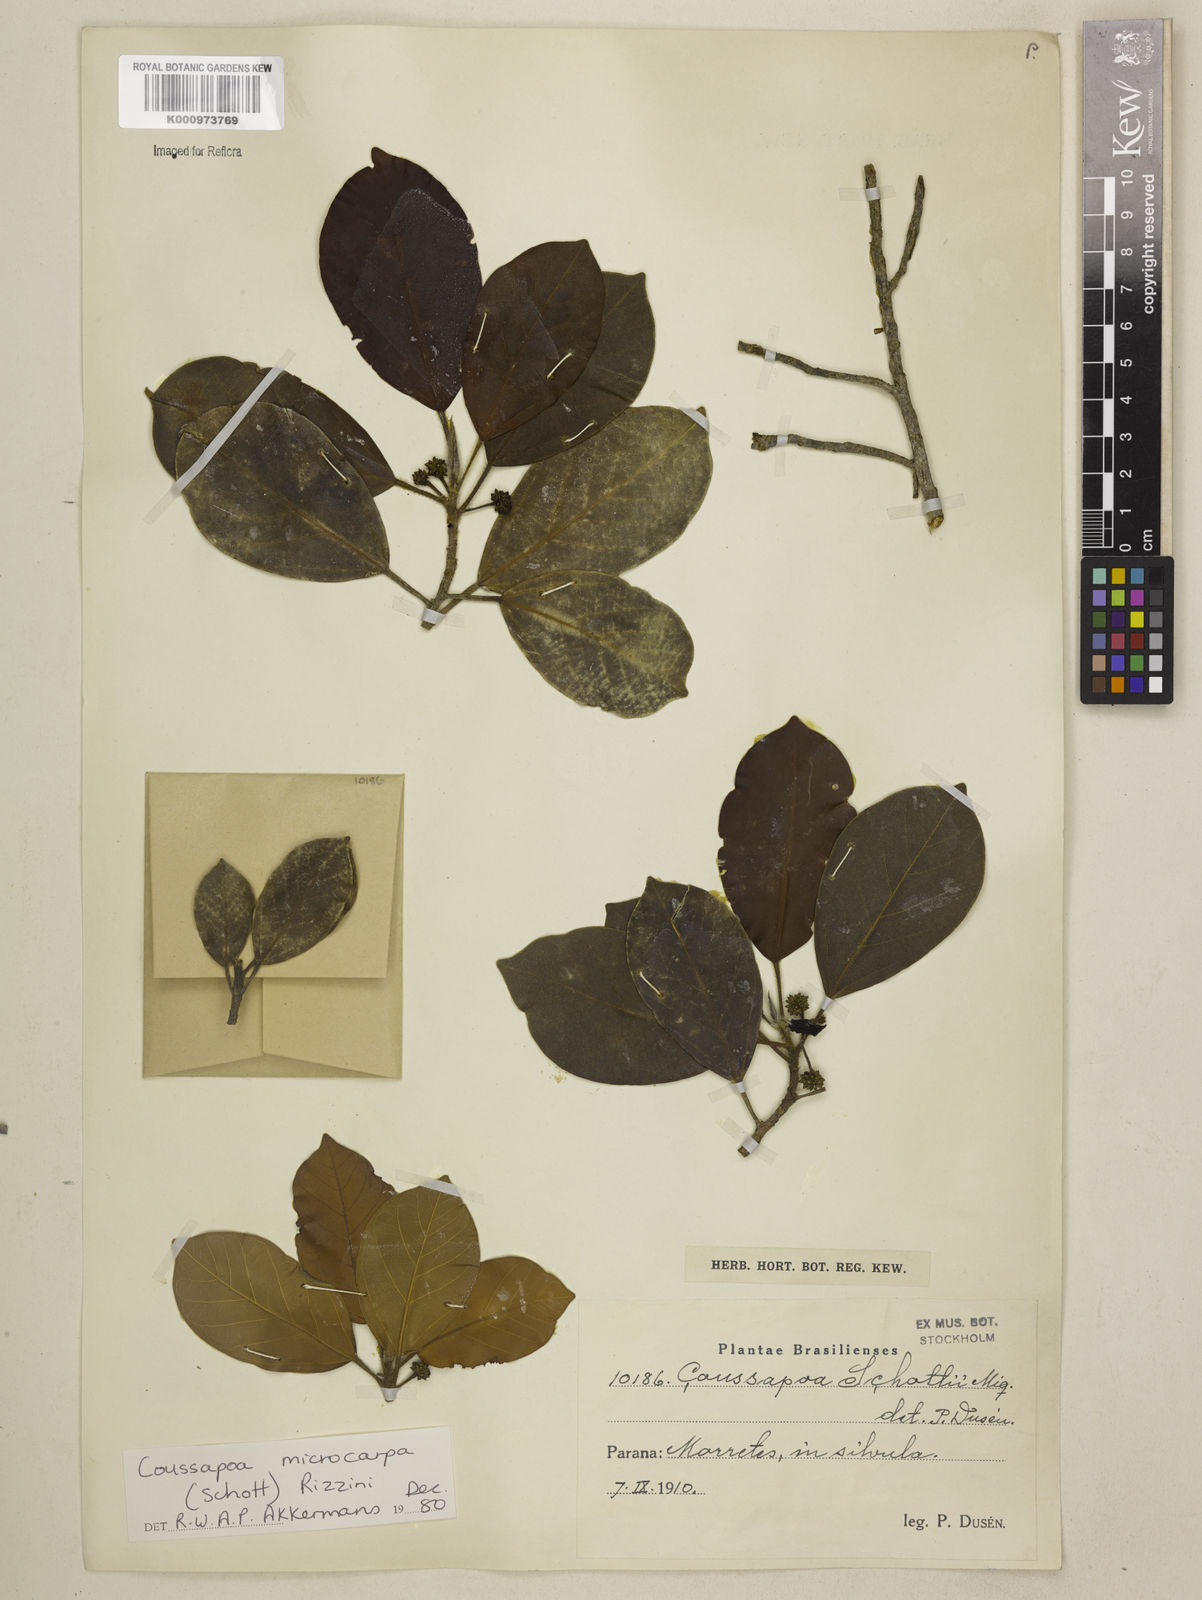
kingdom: Plantae
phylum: Tracheophyta
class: Magnoliopsida
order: Rosales
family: Urticaceae
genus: Coussapoa
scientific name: Coussapoa microcarpa
